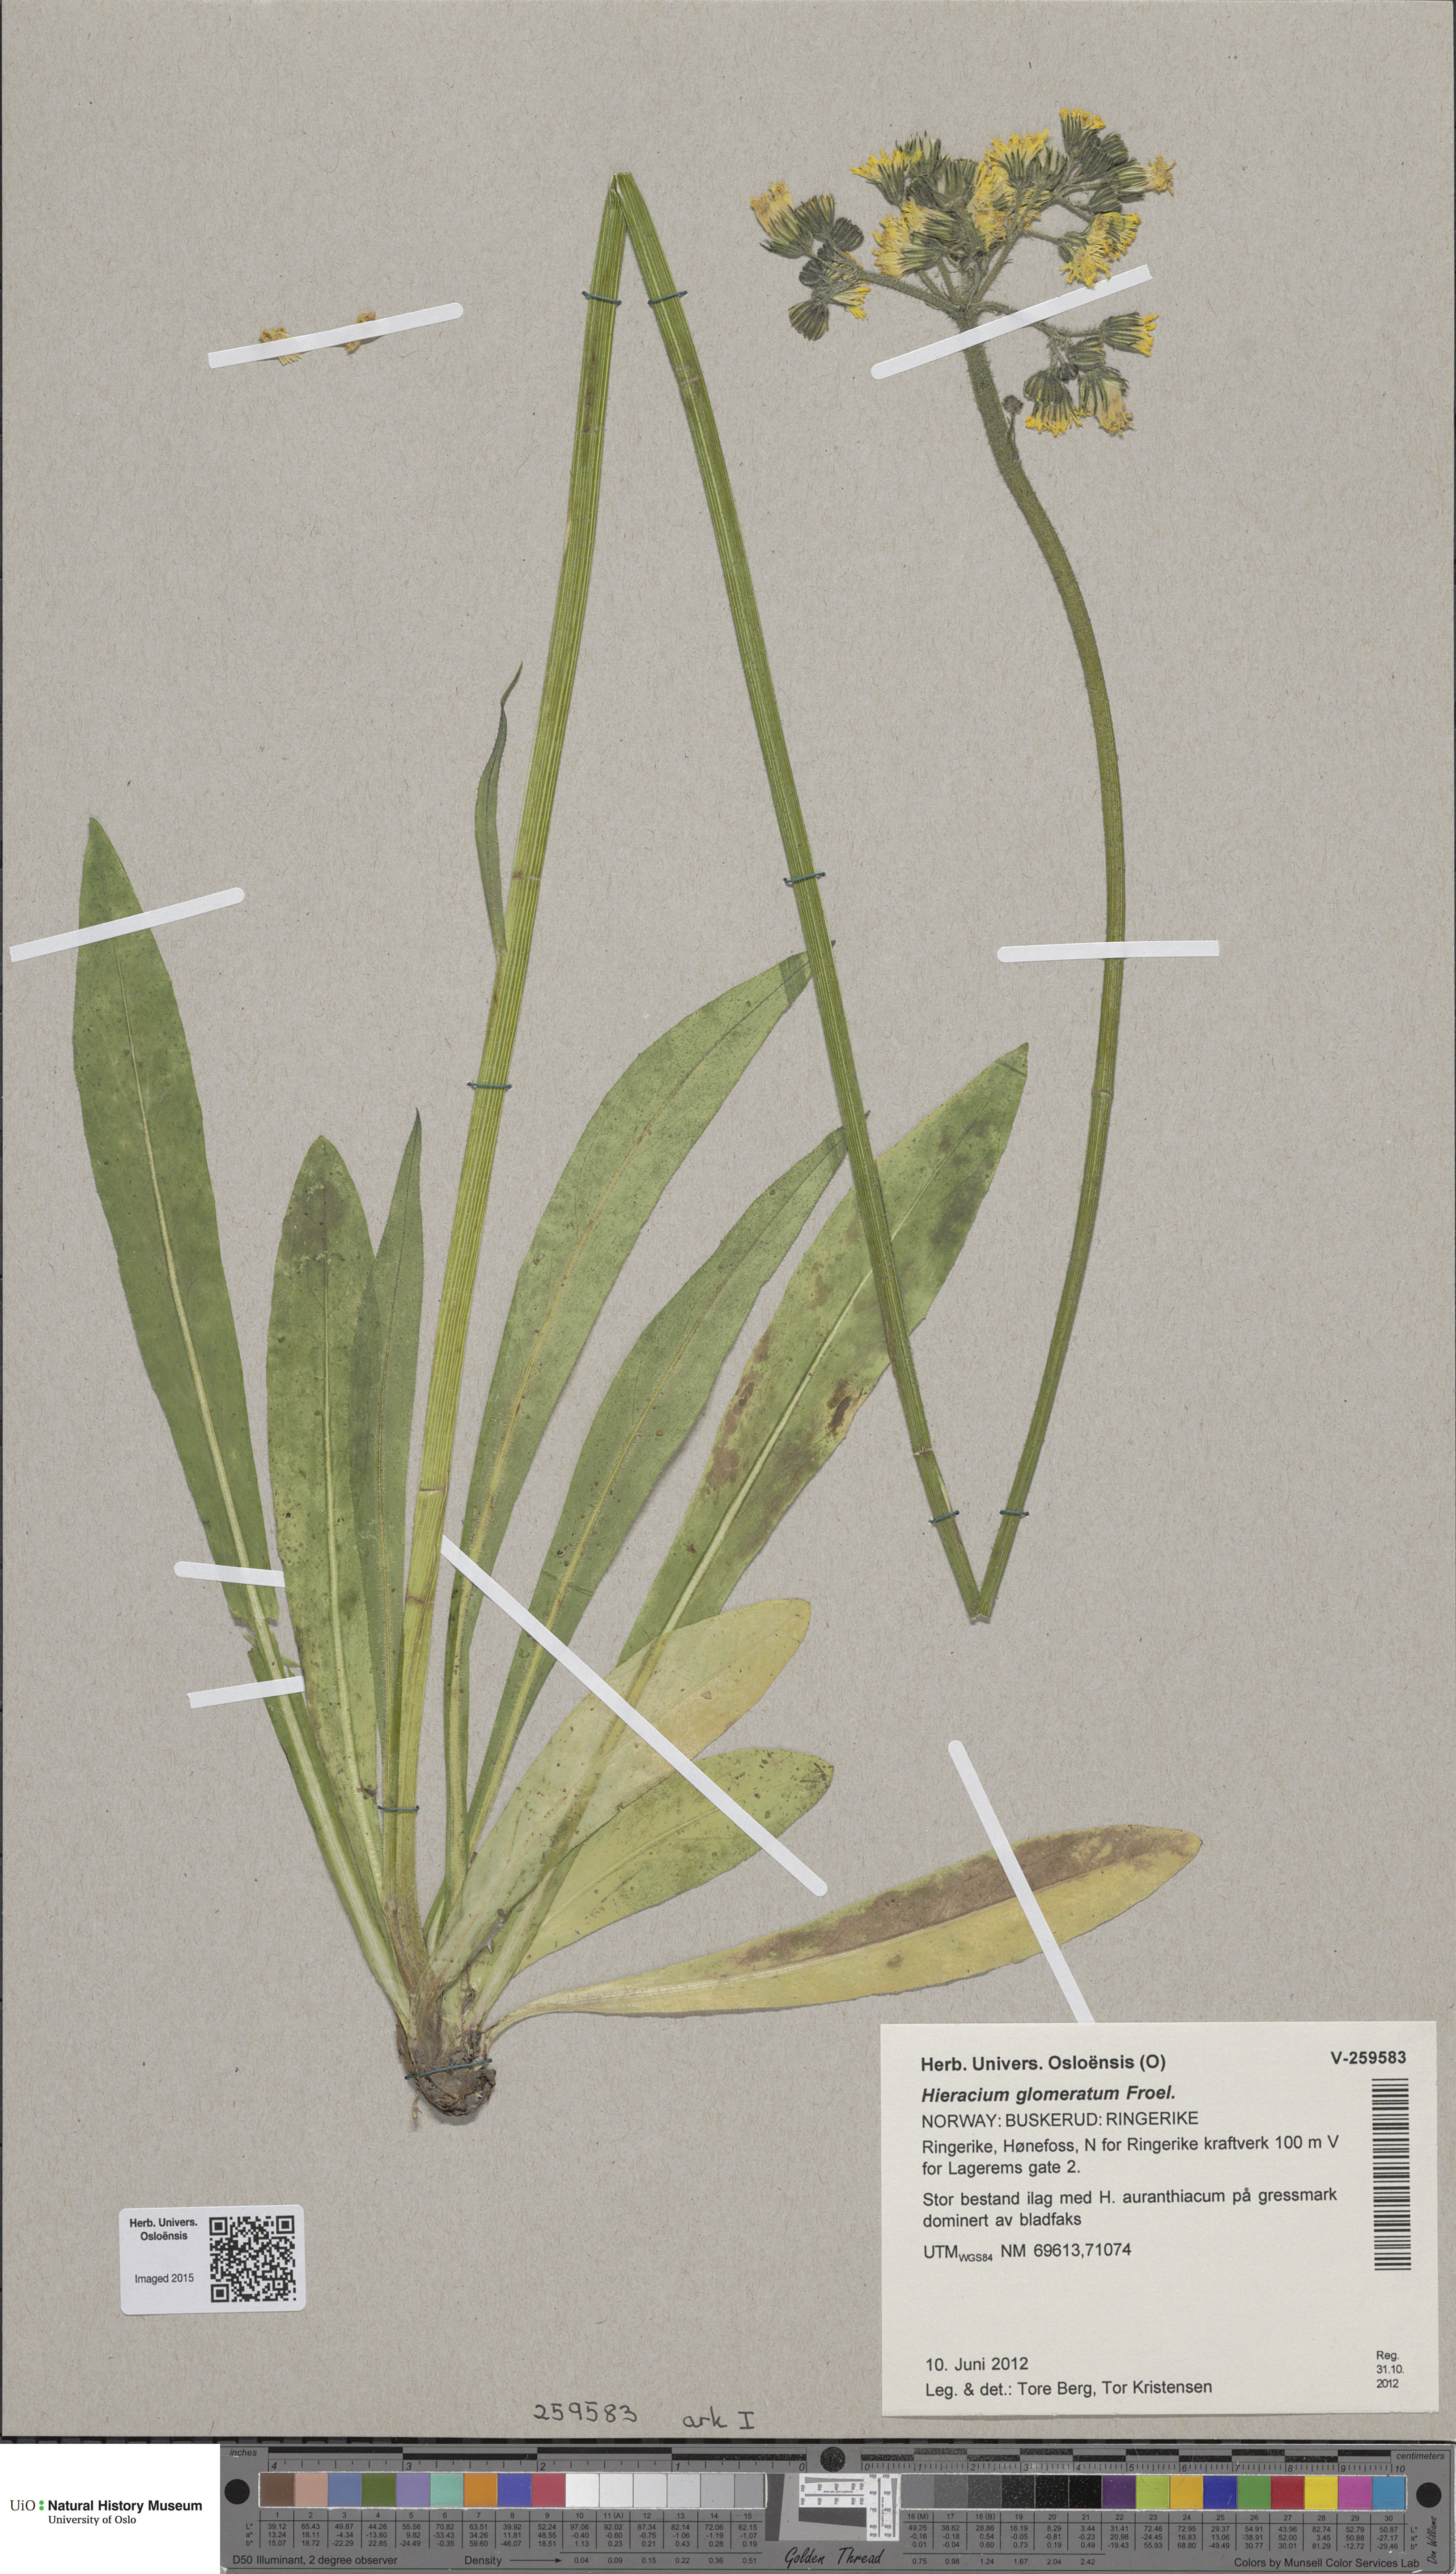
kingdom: Plantae
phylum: Tracheophyta
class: Magnoliopsida
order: Asterales
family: Asteraceae
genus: Pilosella
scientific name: Pilosella glomerata
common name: Queen devil hawkweed
